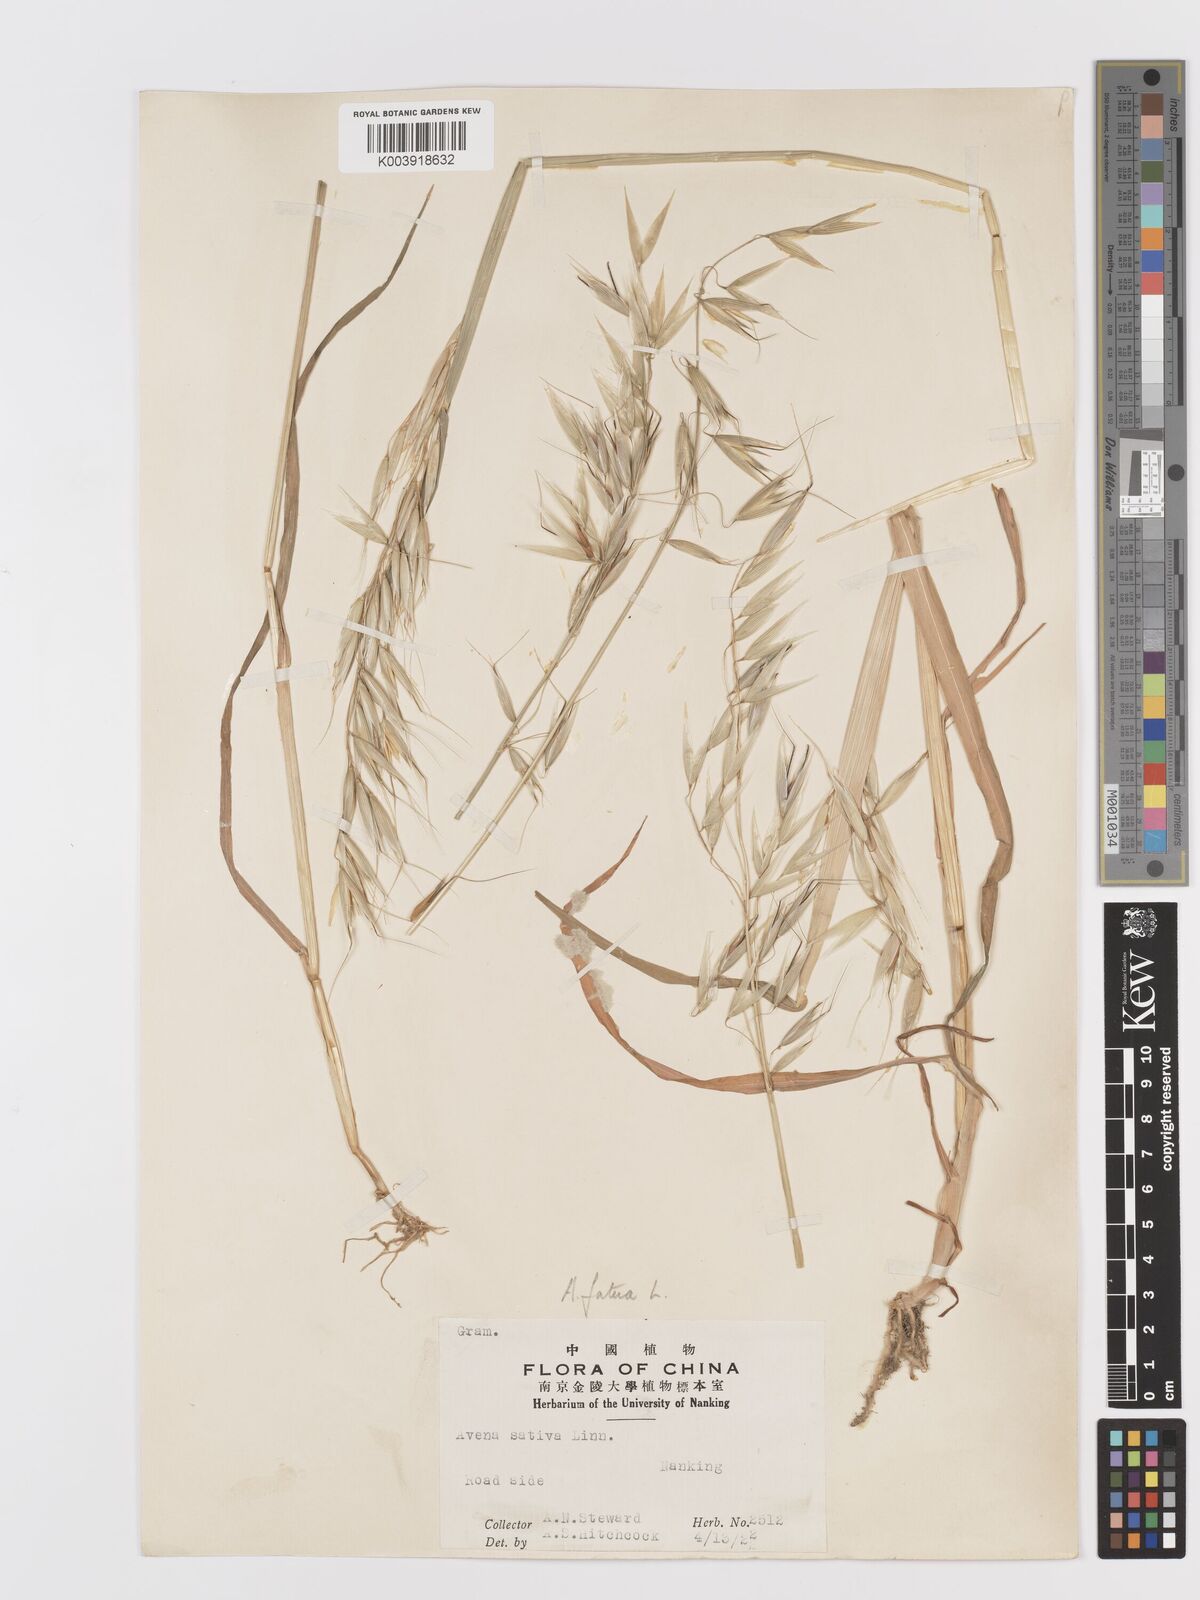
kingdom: Plantae
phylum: Tracheophyta
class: Liliopsida
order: Poales
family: Poaceae
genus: Avena
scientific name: Avena fatua
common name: Wild oat
